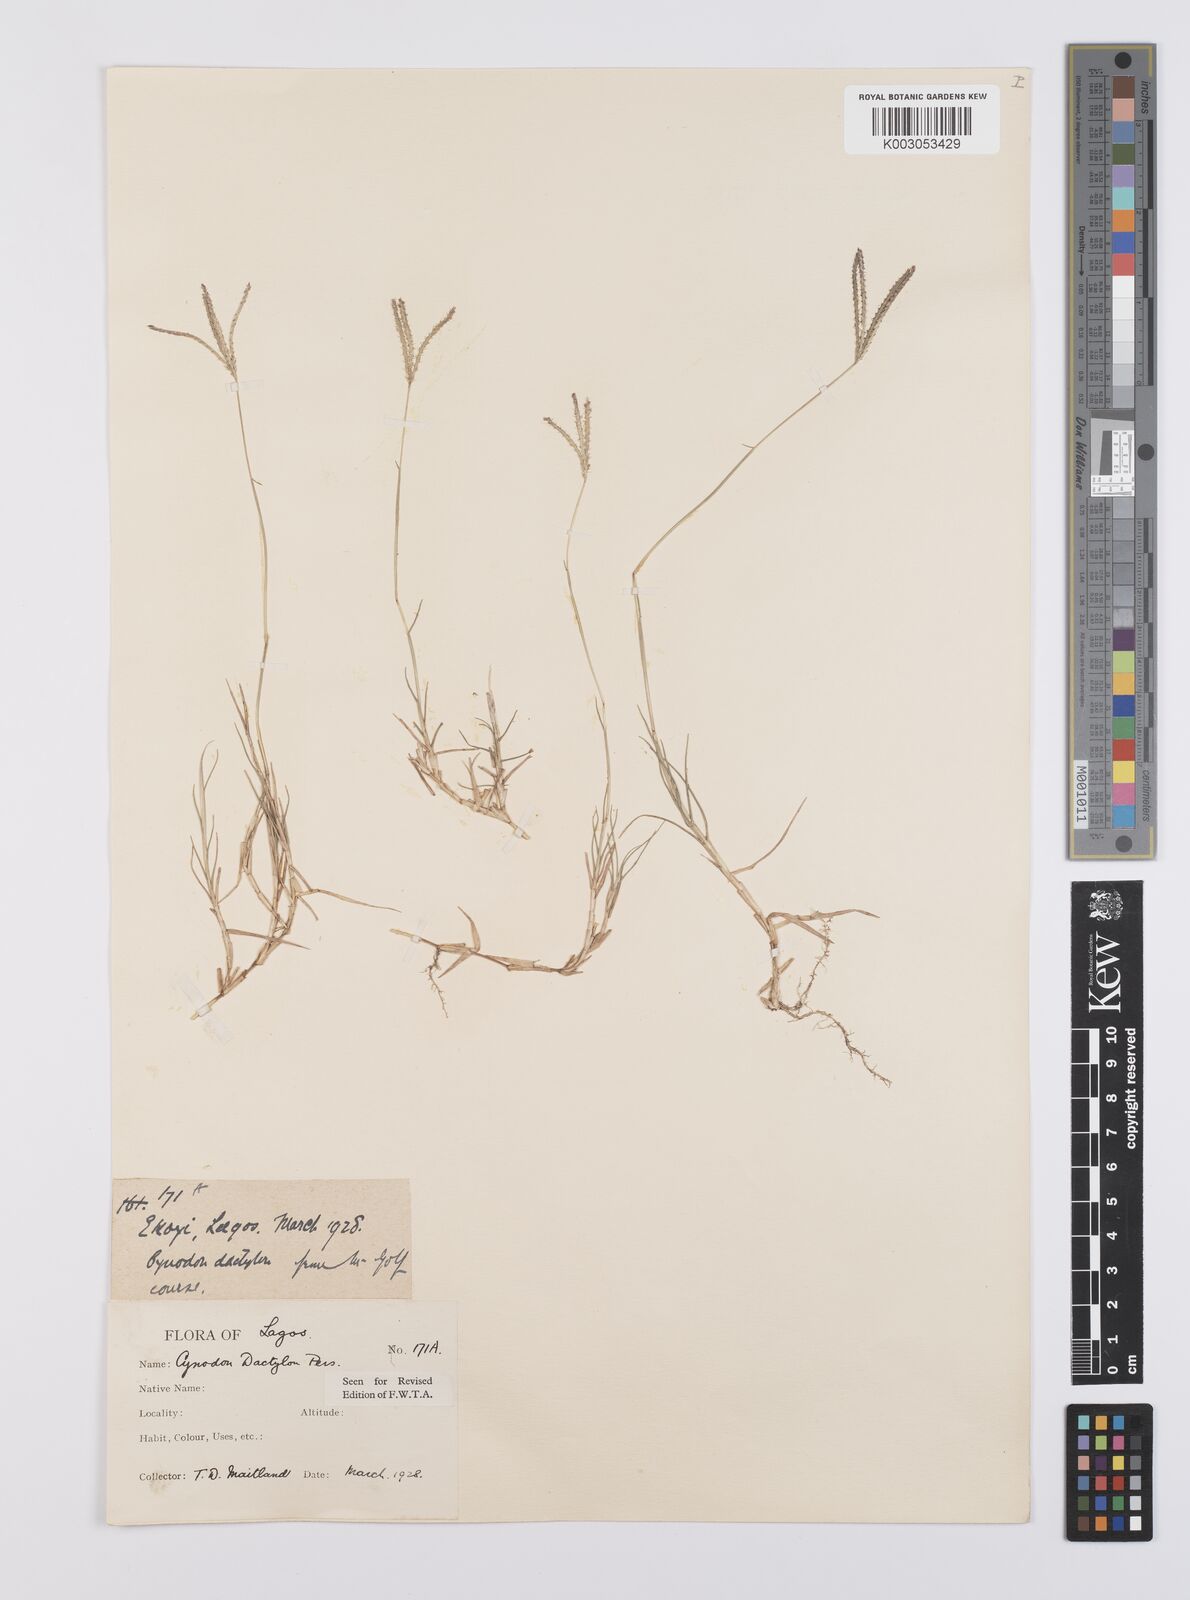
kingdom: Plantae
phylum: Tracheophyta
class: Liliopsida
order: Poales
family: Poaceae
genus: Cynodon
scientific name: Cynodon dactylon
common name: Bermuda grass
